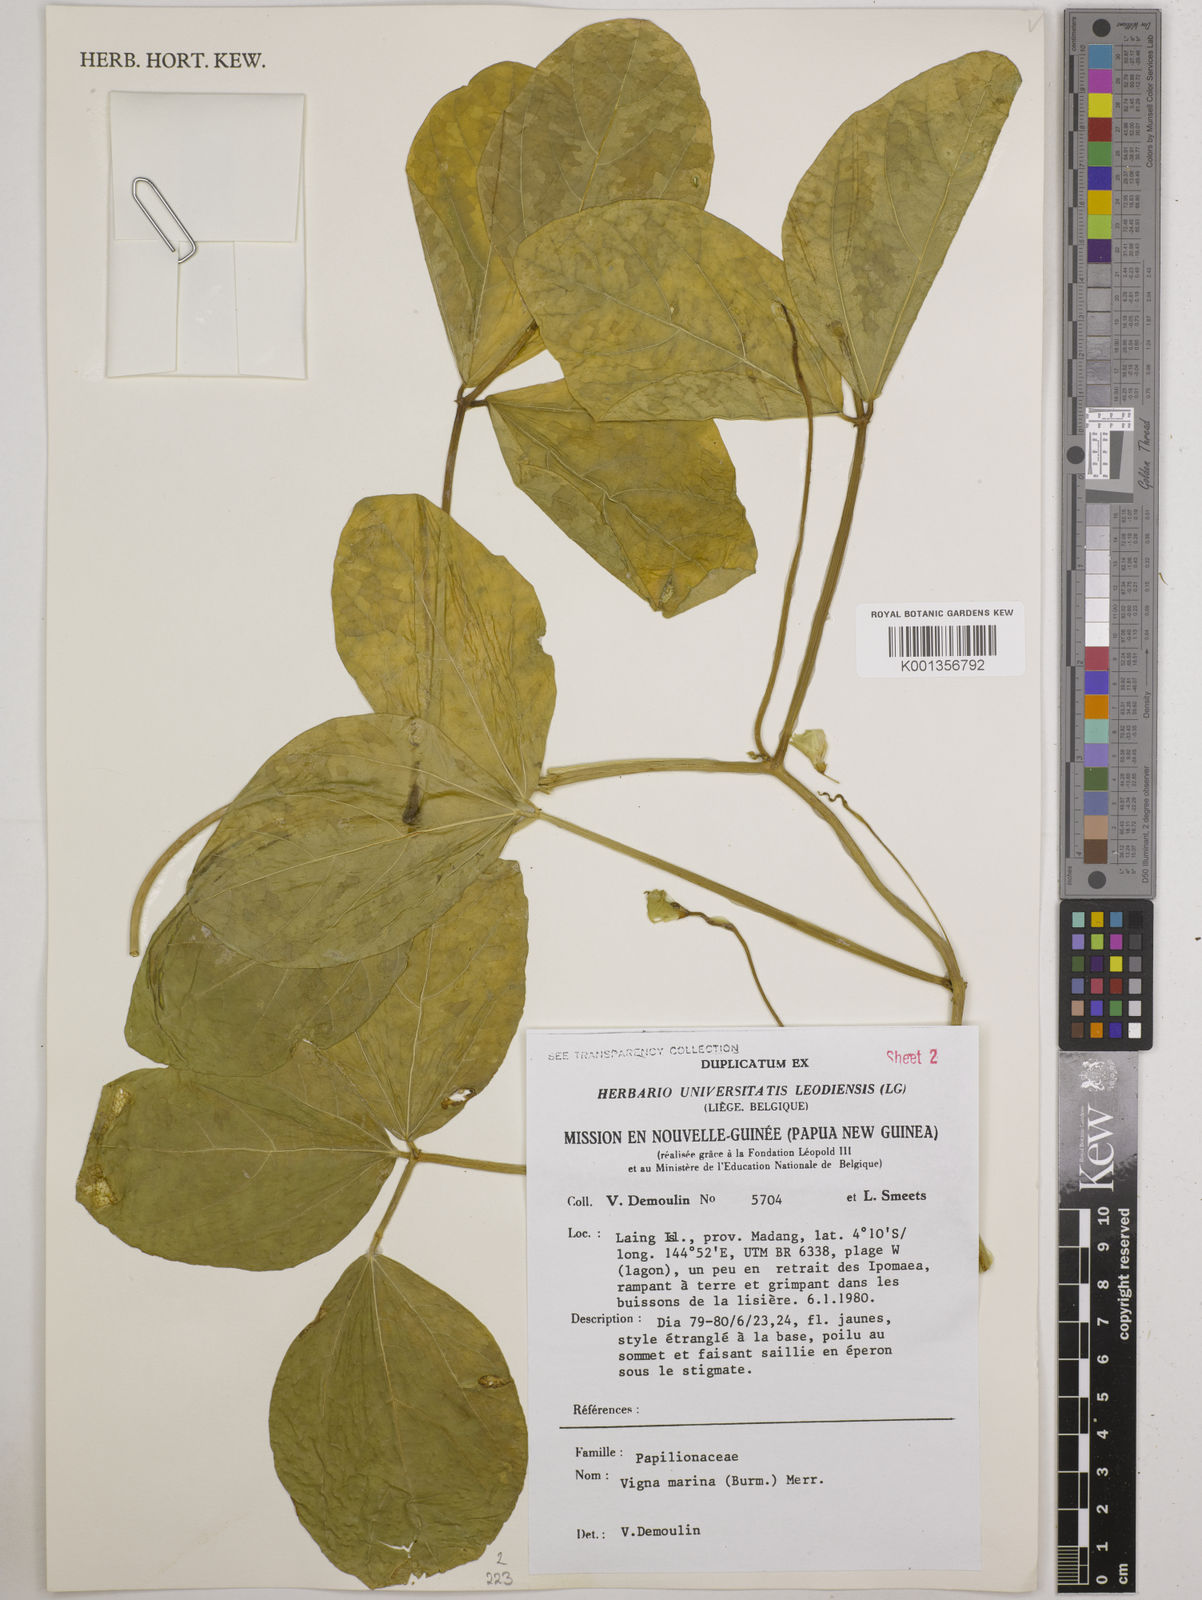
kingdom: Plantae
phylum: Tracheophyta
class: Magnoliopsida
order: Fabales
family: Fabaceae
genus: Vigna
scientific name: Vigna marina
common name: Dune-bean
